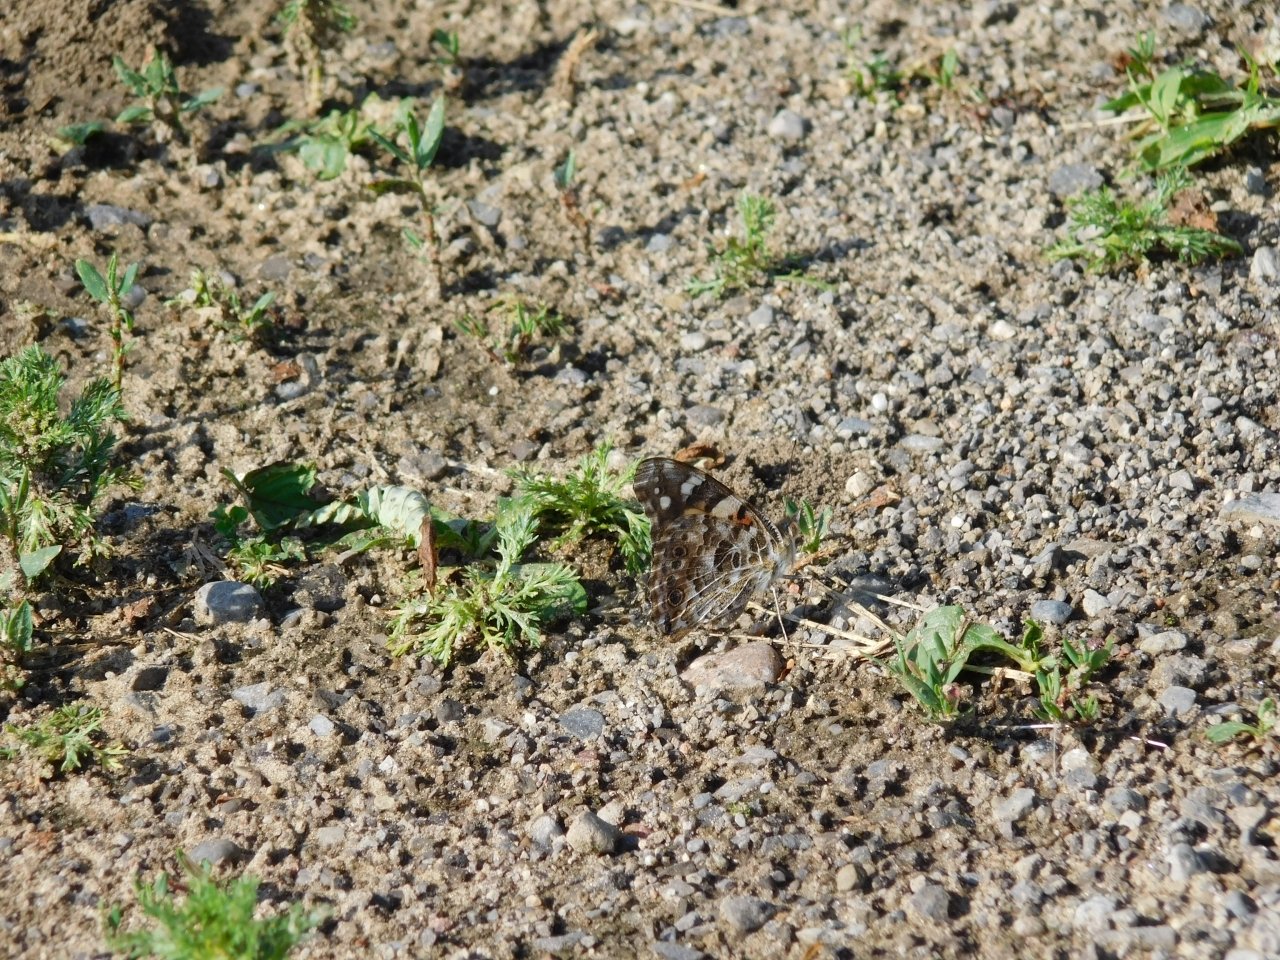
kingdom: Animalia
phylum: Arthropoda
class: Insecta
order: Lepidoptera
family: Nymphalidae
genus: Vanessa
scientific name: Vanessa cardui
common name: Painted Lady
